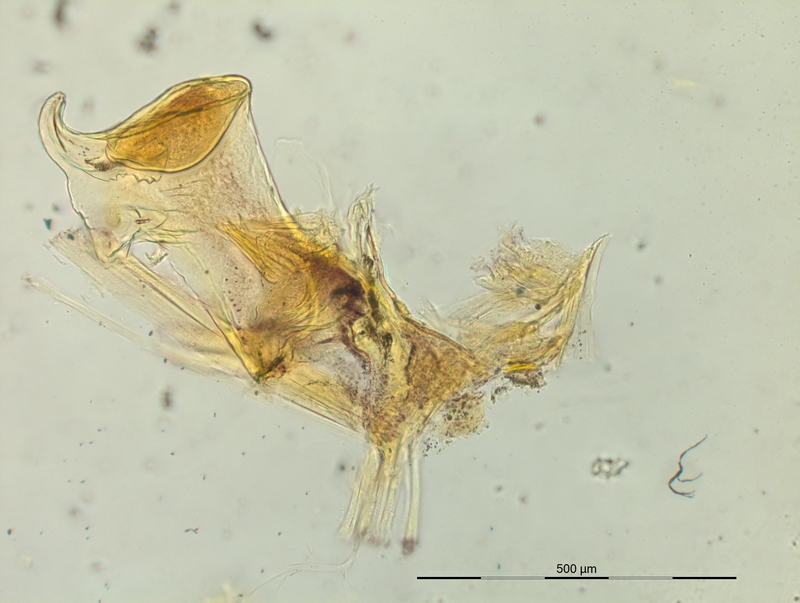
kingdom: Animalia
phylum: Arthropoda
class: Diplopoda
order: Chordeumatida
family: Craspedosomatidae
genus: Craspedosoma
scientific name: Craspedosoma rawlinsii
